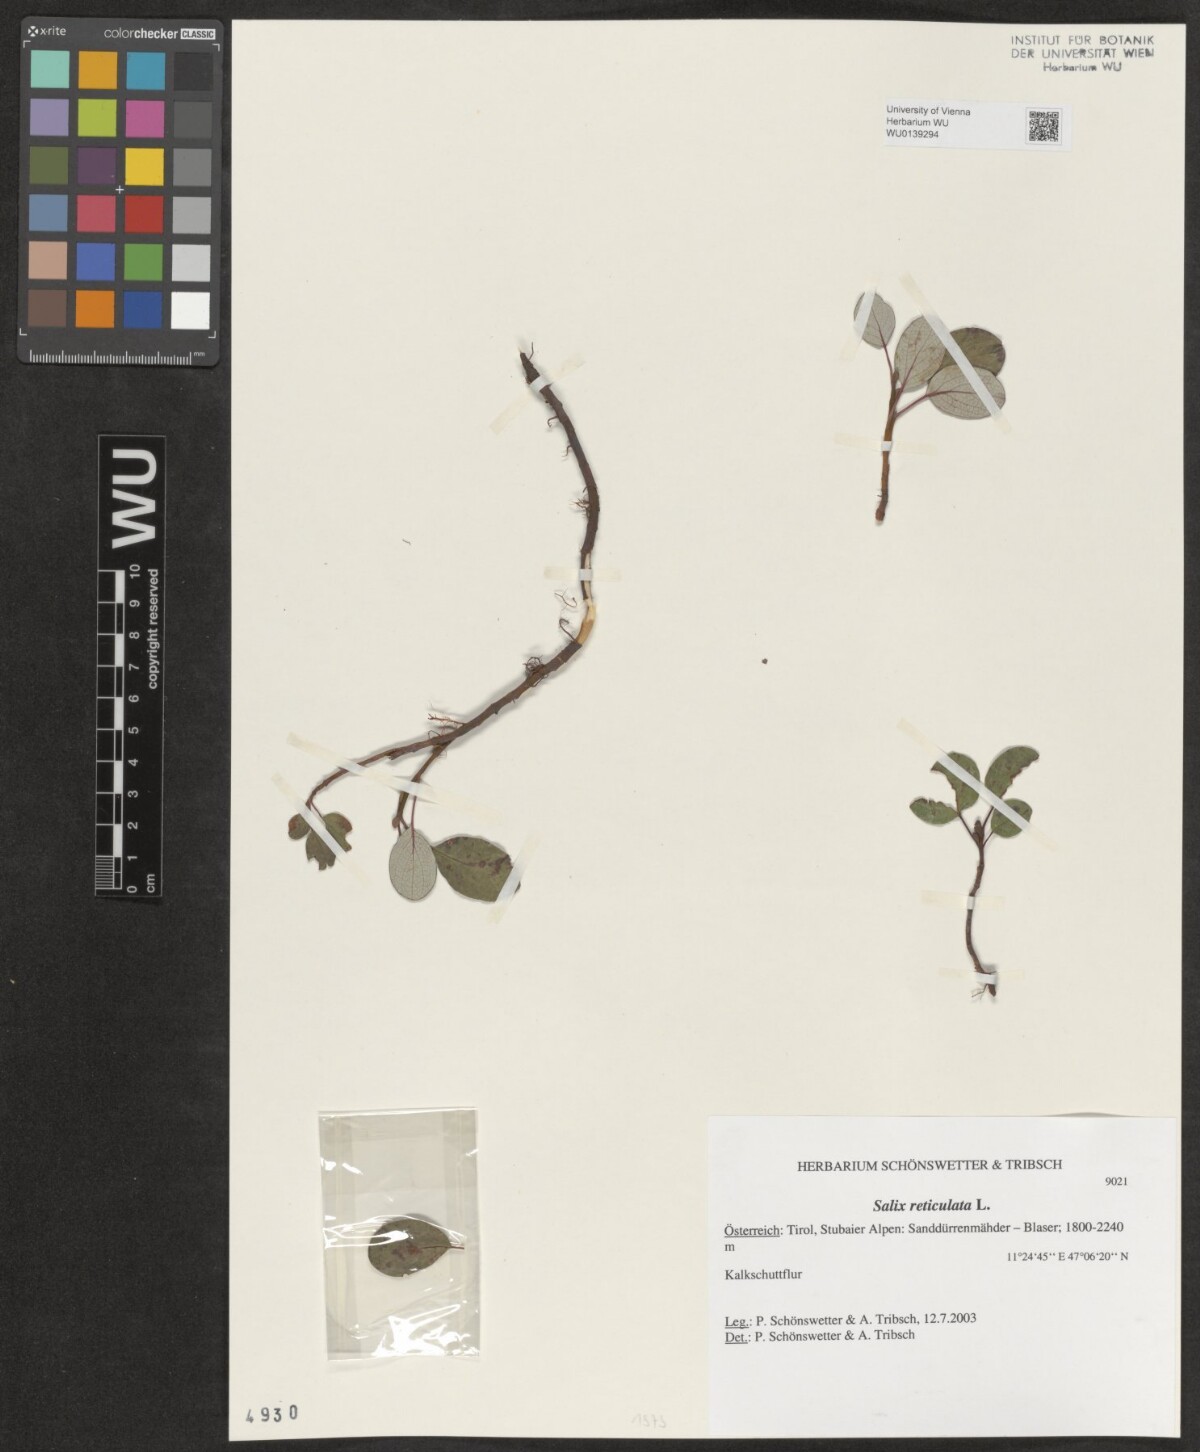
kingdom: Plantae
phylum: Tracheophyta
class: Magnoliopsida
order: Malpighiales
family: Salicaceae
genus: Salix
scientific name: Salix reticulata
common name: Net-leaved willow
